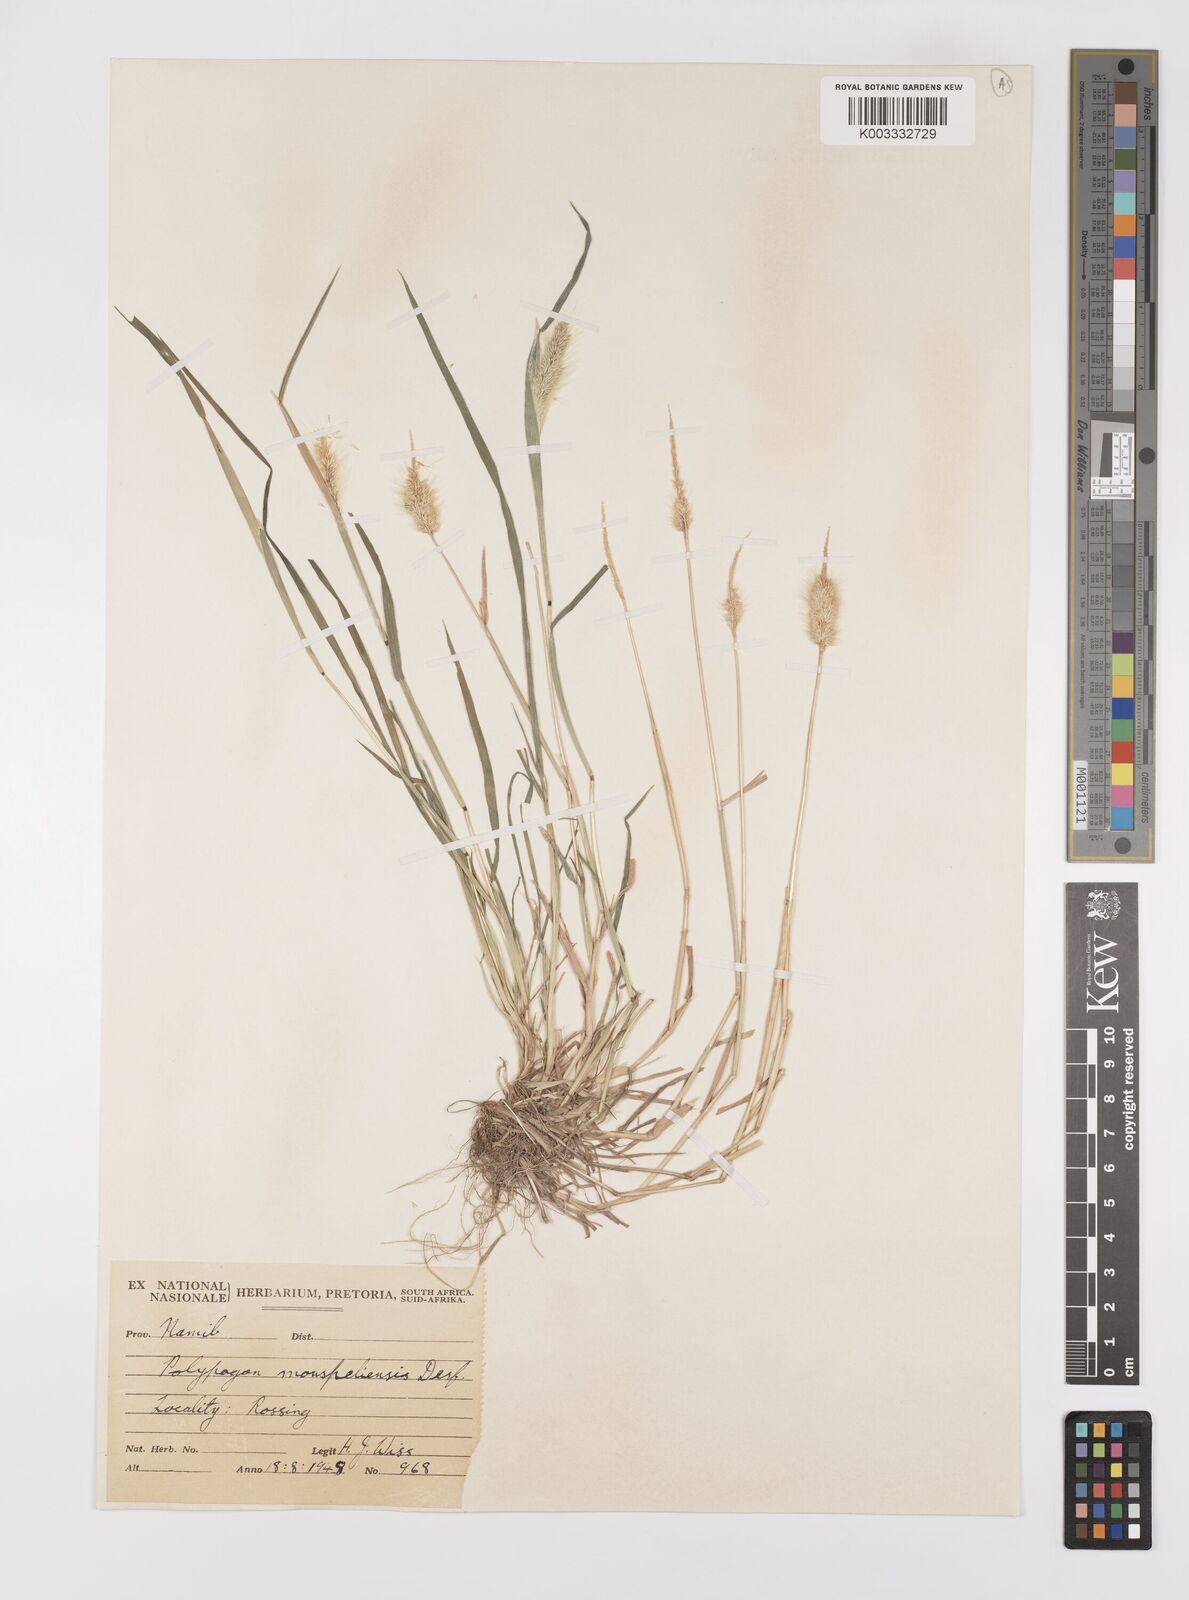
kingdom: Plantae
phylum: Tracheophyta
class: Liliopsida
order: Poales
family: Poaceae
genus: Polypogon
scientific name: Polypogon monspeliensis
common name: Annual rabbitsfoot grass
